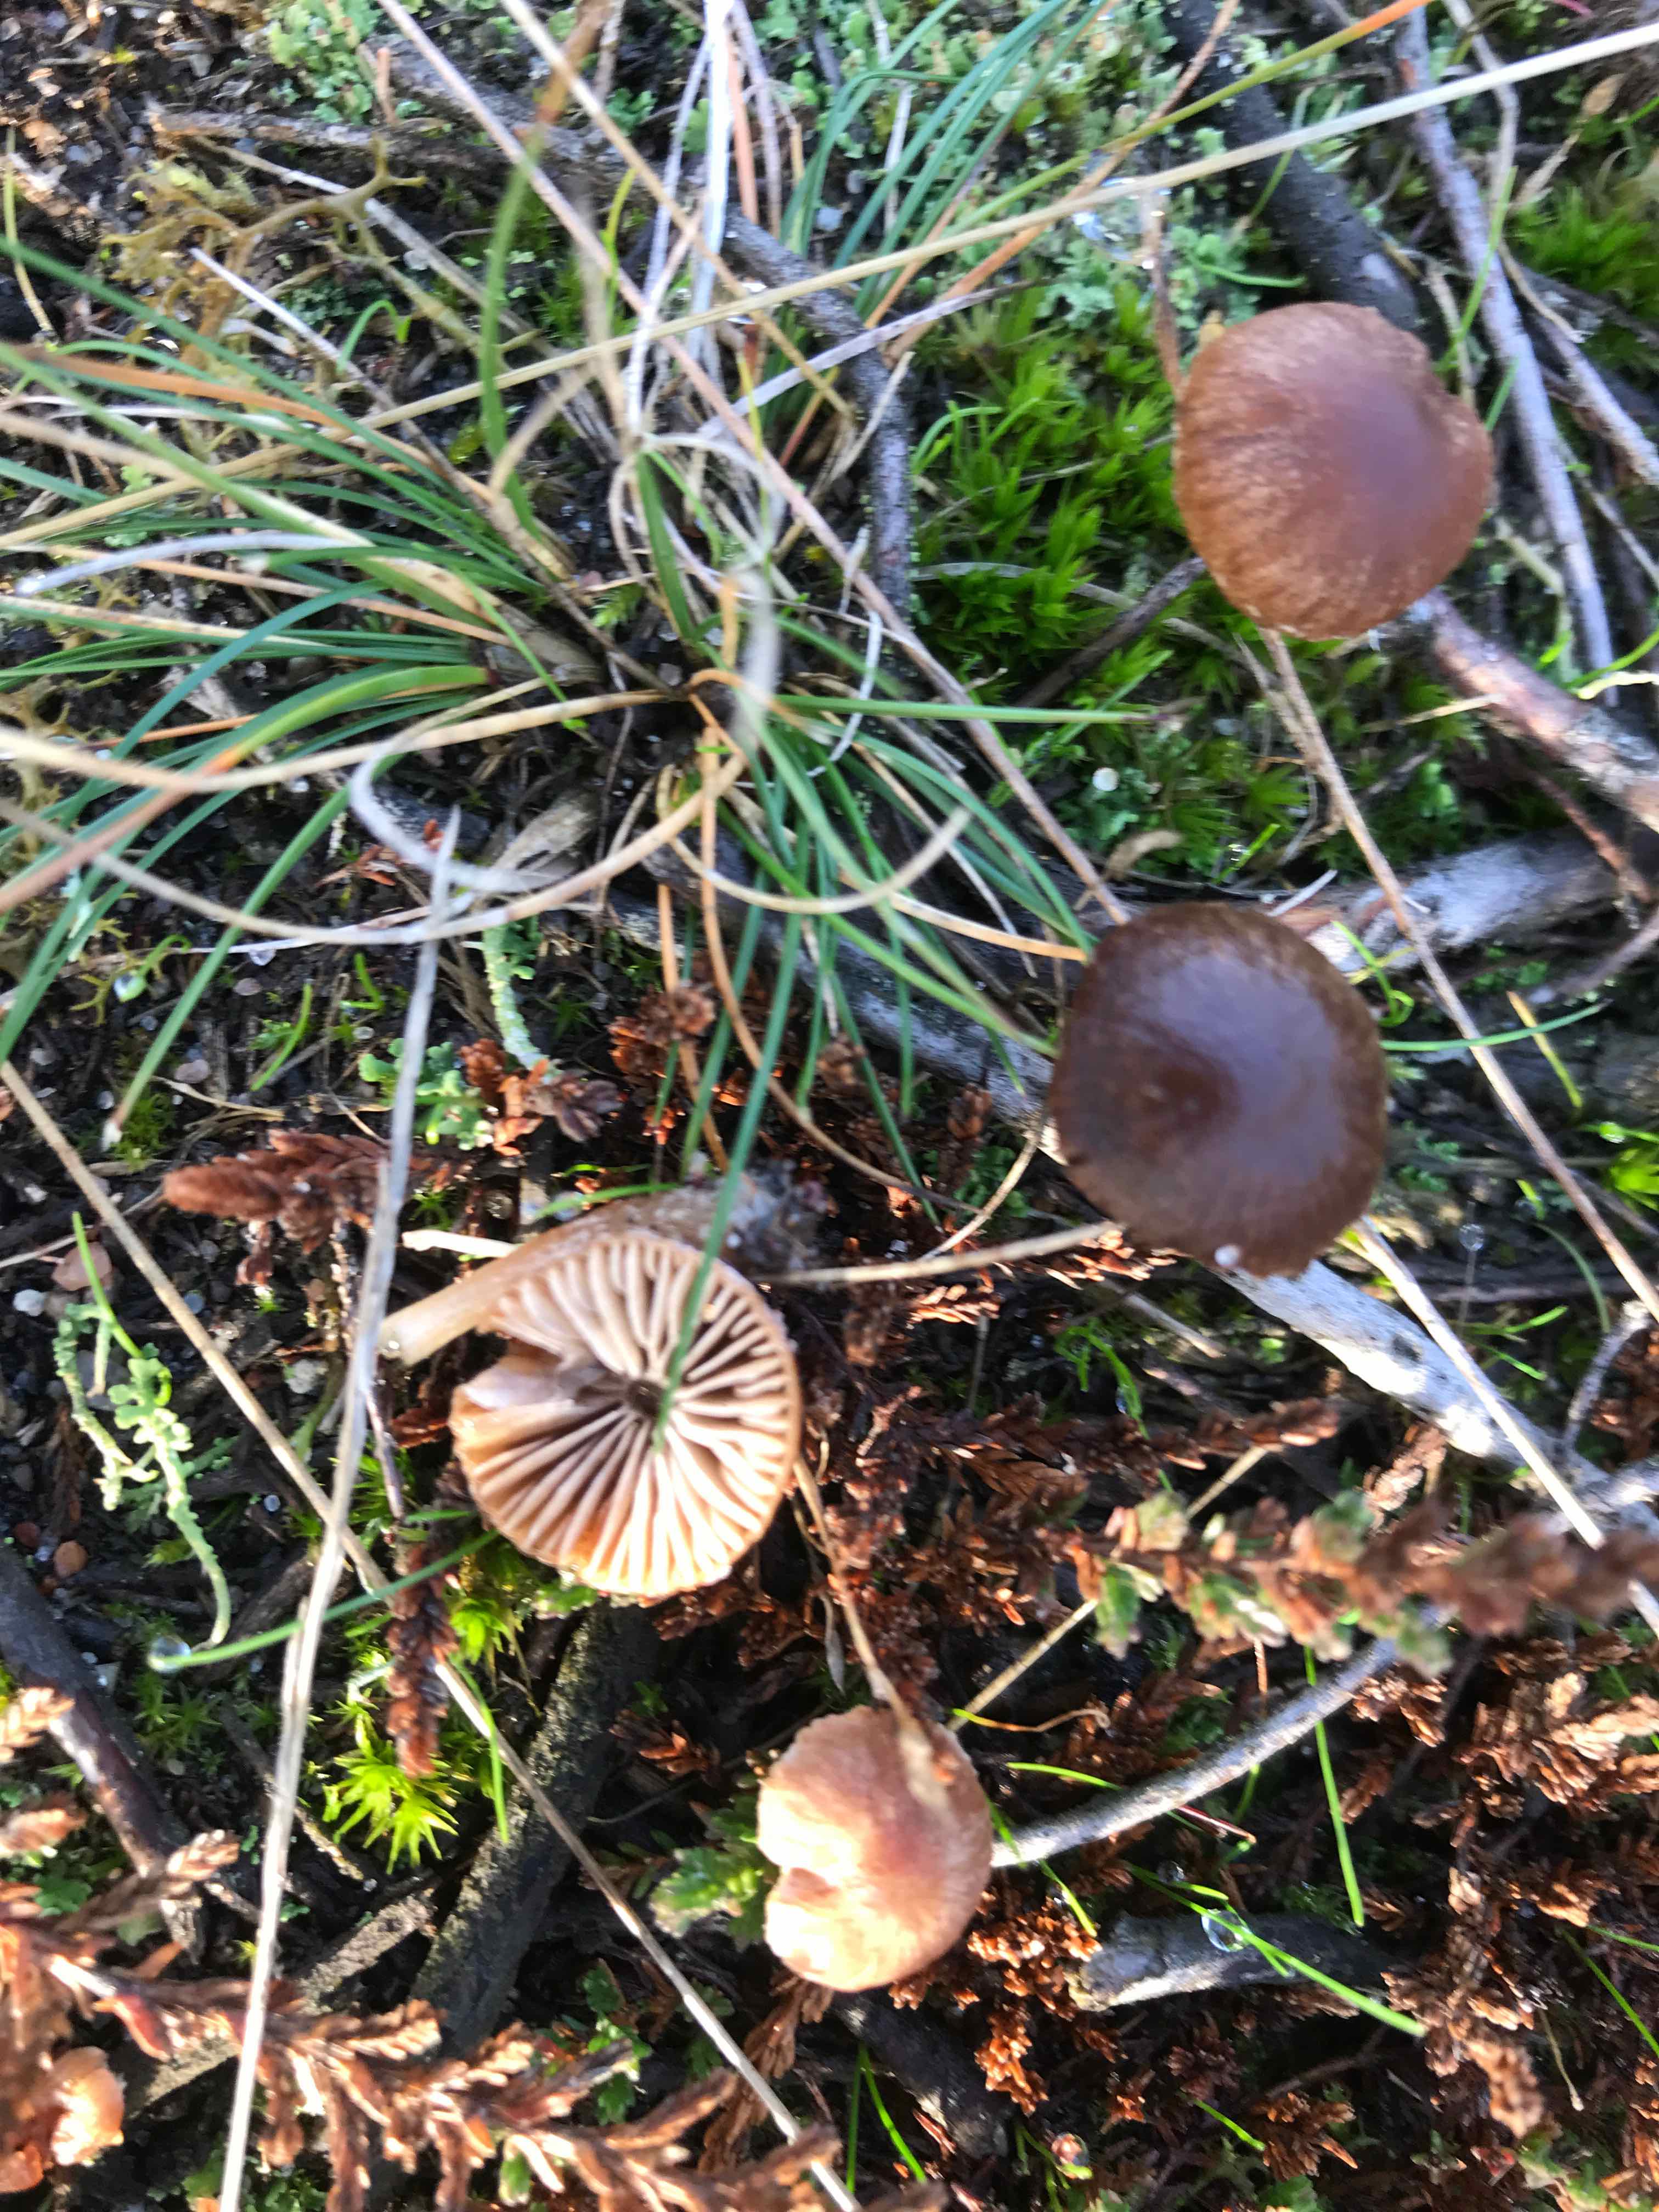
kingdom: Fungi
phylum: Basidiomycota
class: Agaricomycetes
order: Agaricales
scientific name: Agaricales
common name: champignonordenen
